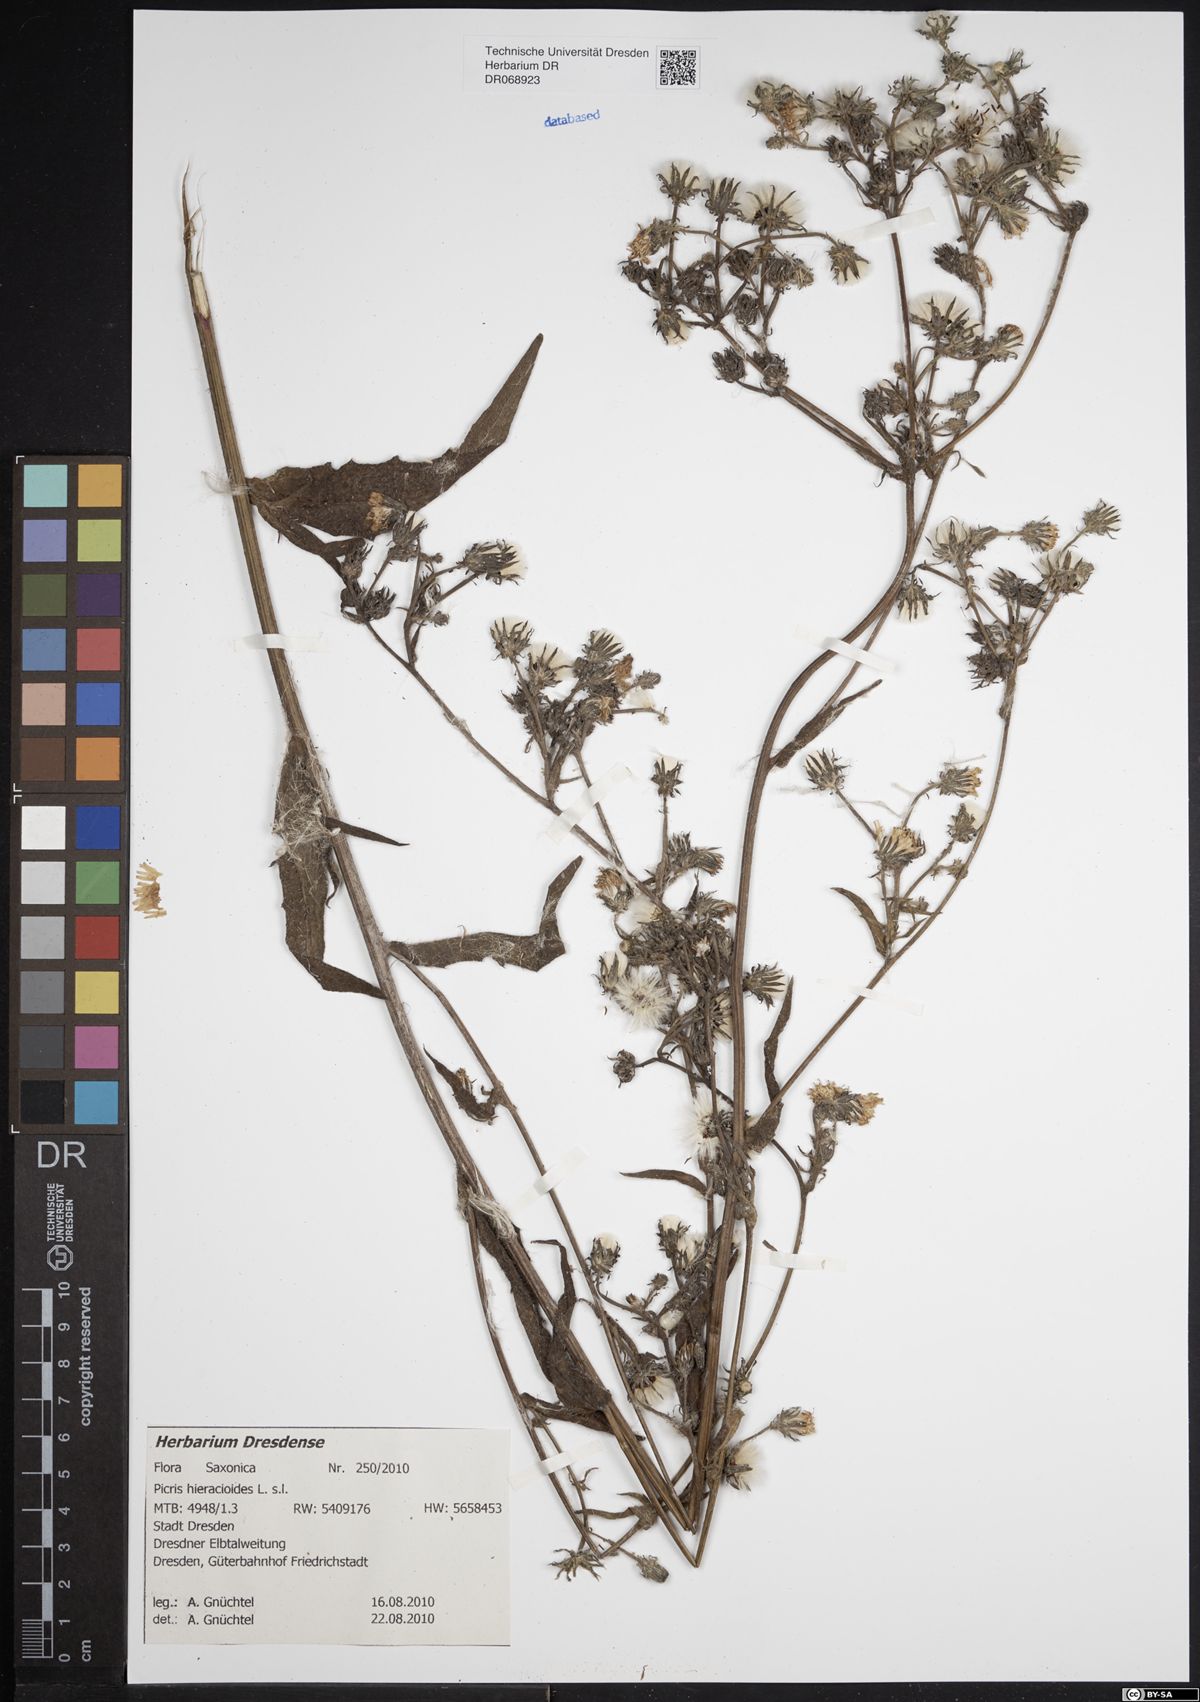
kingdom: Plantae
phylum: Tracheophyta
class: Magnoliopsida
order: Asterales
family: Asteraceae
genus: Picris
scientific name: Picris hieracioides
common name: Hawkweed oxtongue
